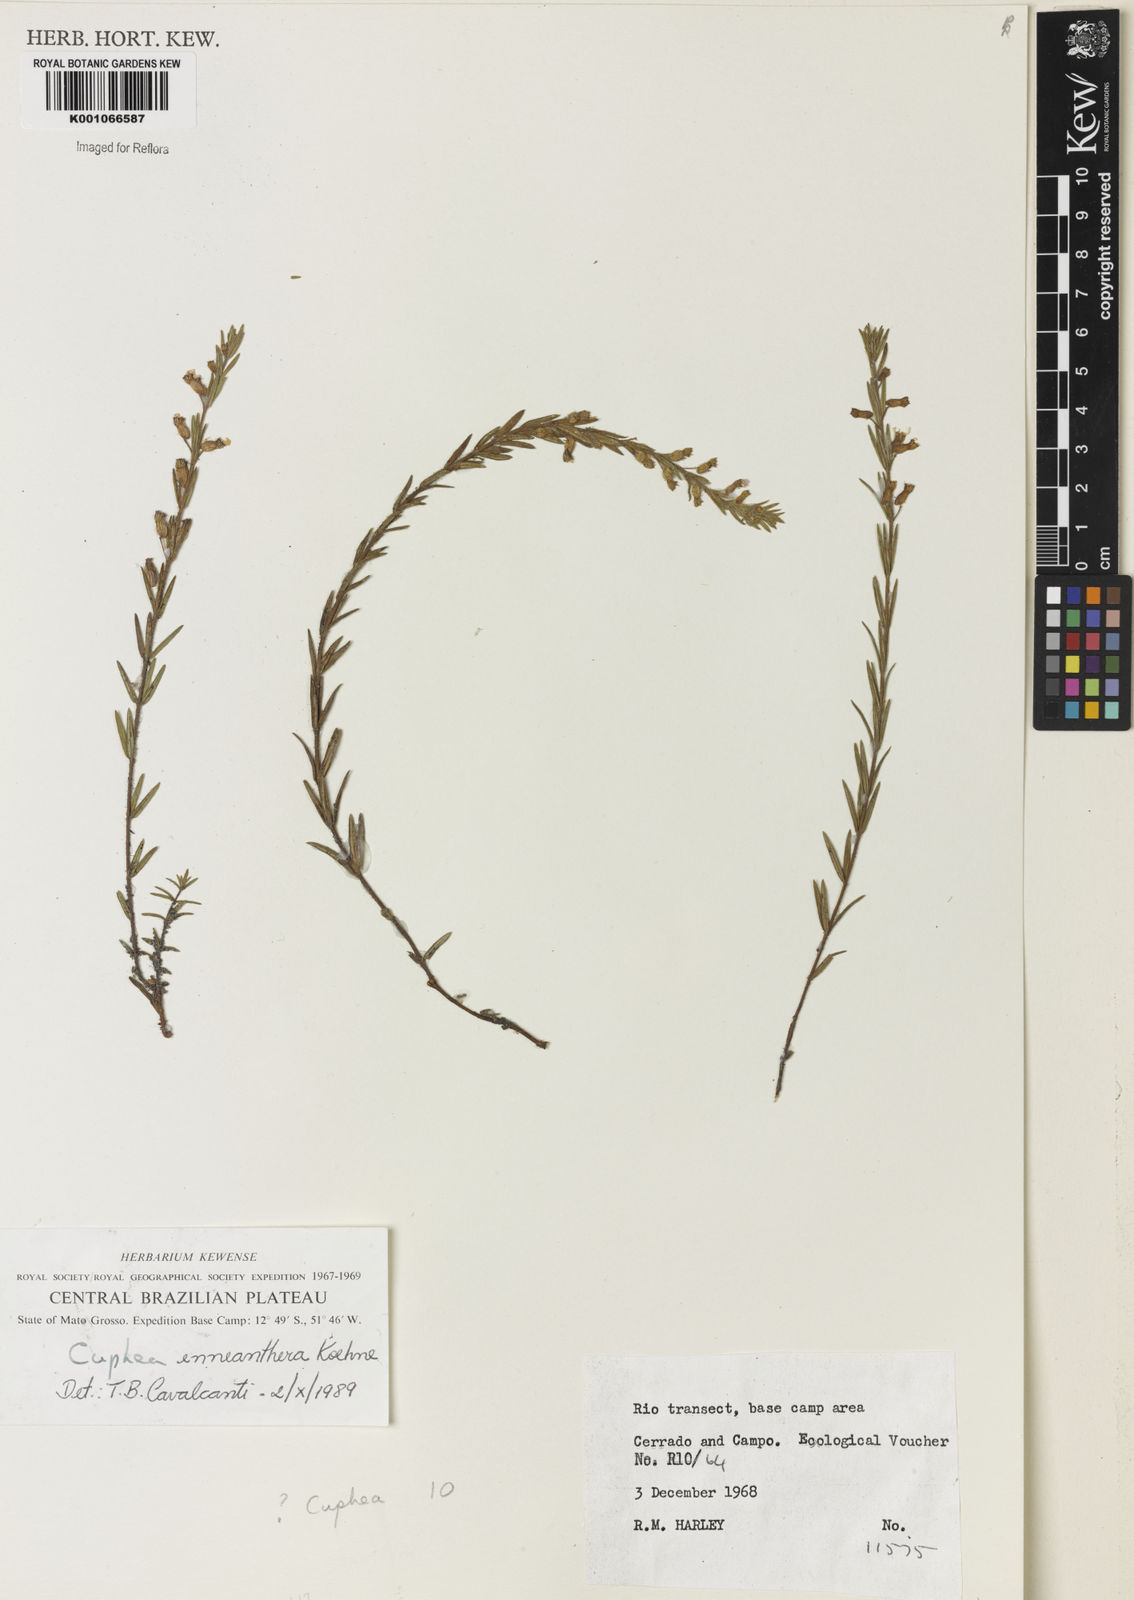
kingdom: Plantae
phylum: Tracheophyta
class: Magnoliopsida
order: Myrtales
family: Lythraceae
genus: Cuphea
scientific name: Cuphea retrorsicapilla
